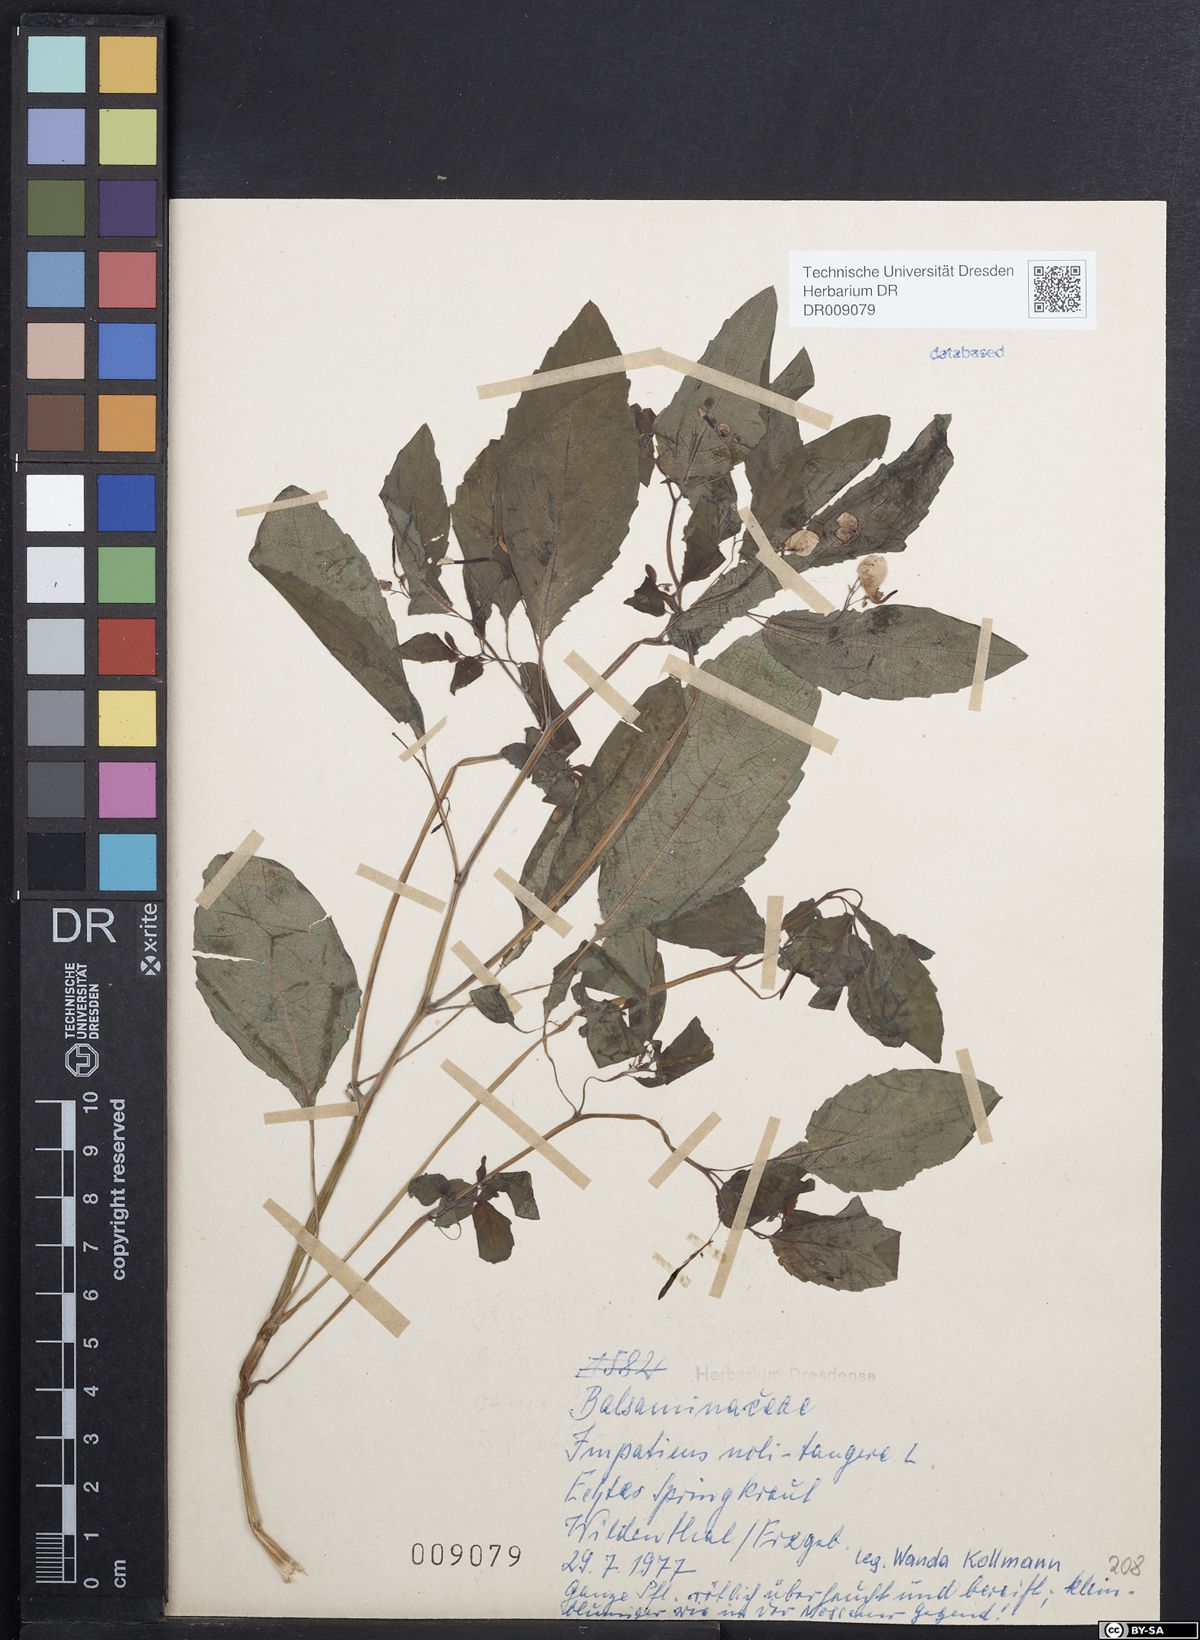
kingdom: Plantae
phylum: Tracheophyta
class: Magnoliopsida
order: Ericales
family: Balsaminaceae
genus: Impatiens
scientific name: Impatiens noli-tangere
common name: Touch-me-not balsam
